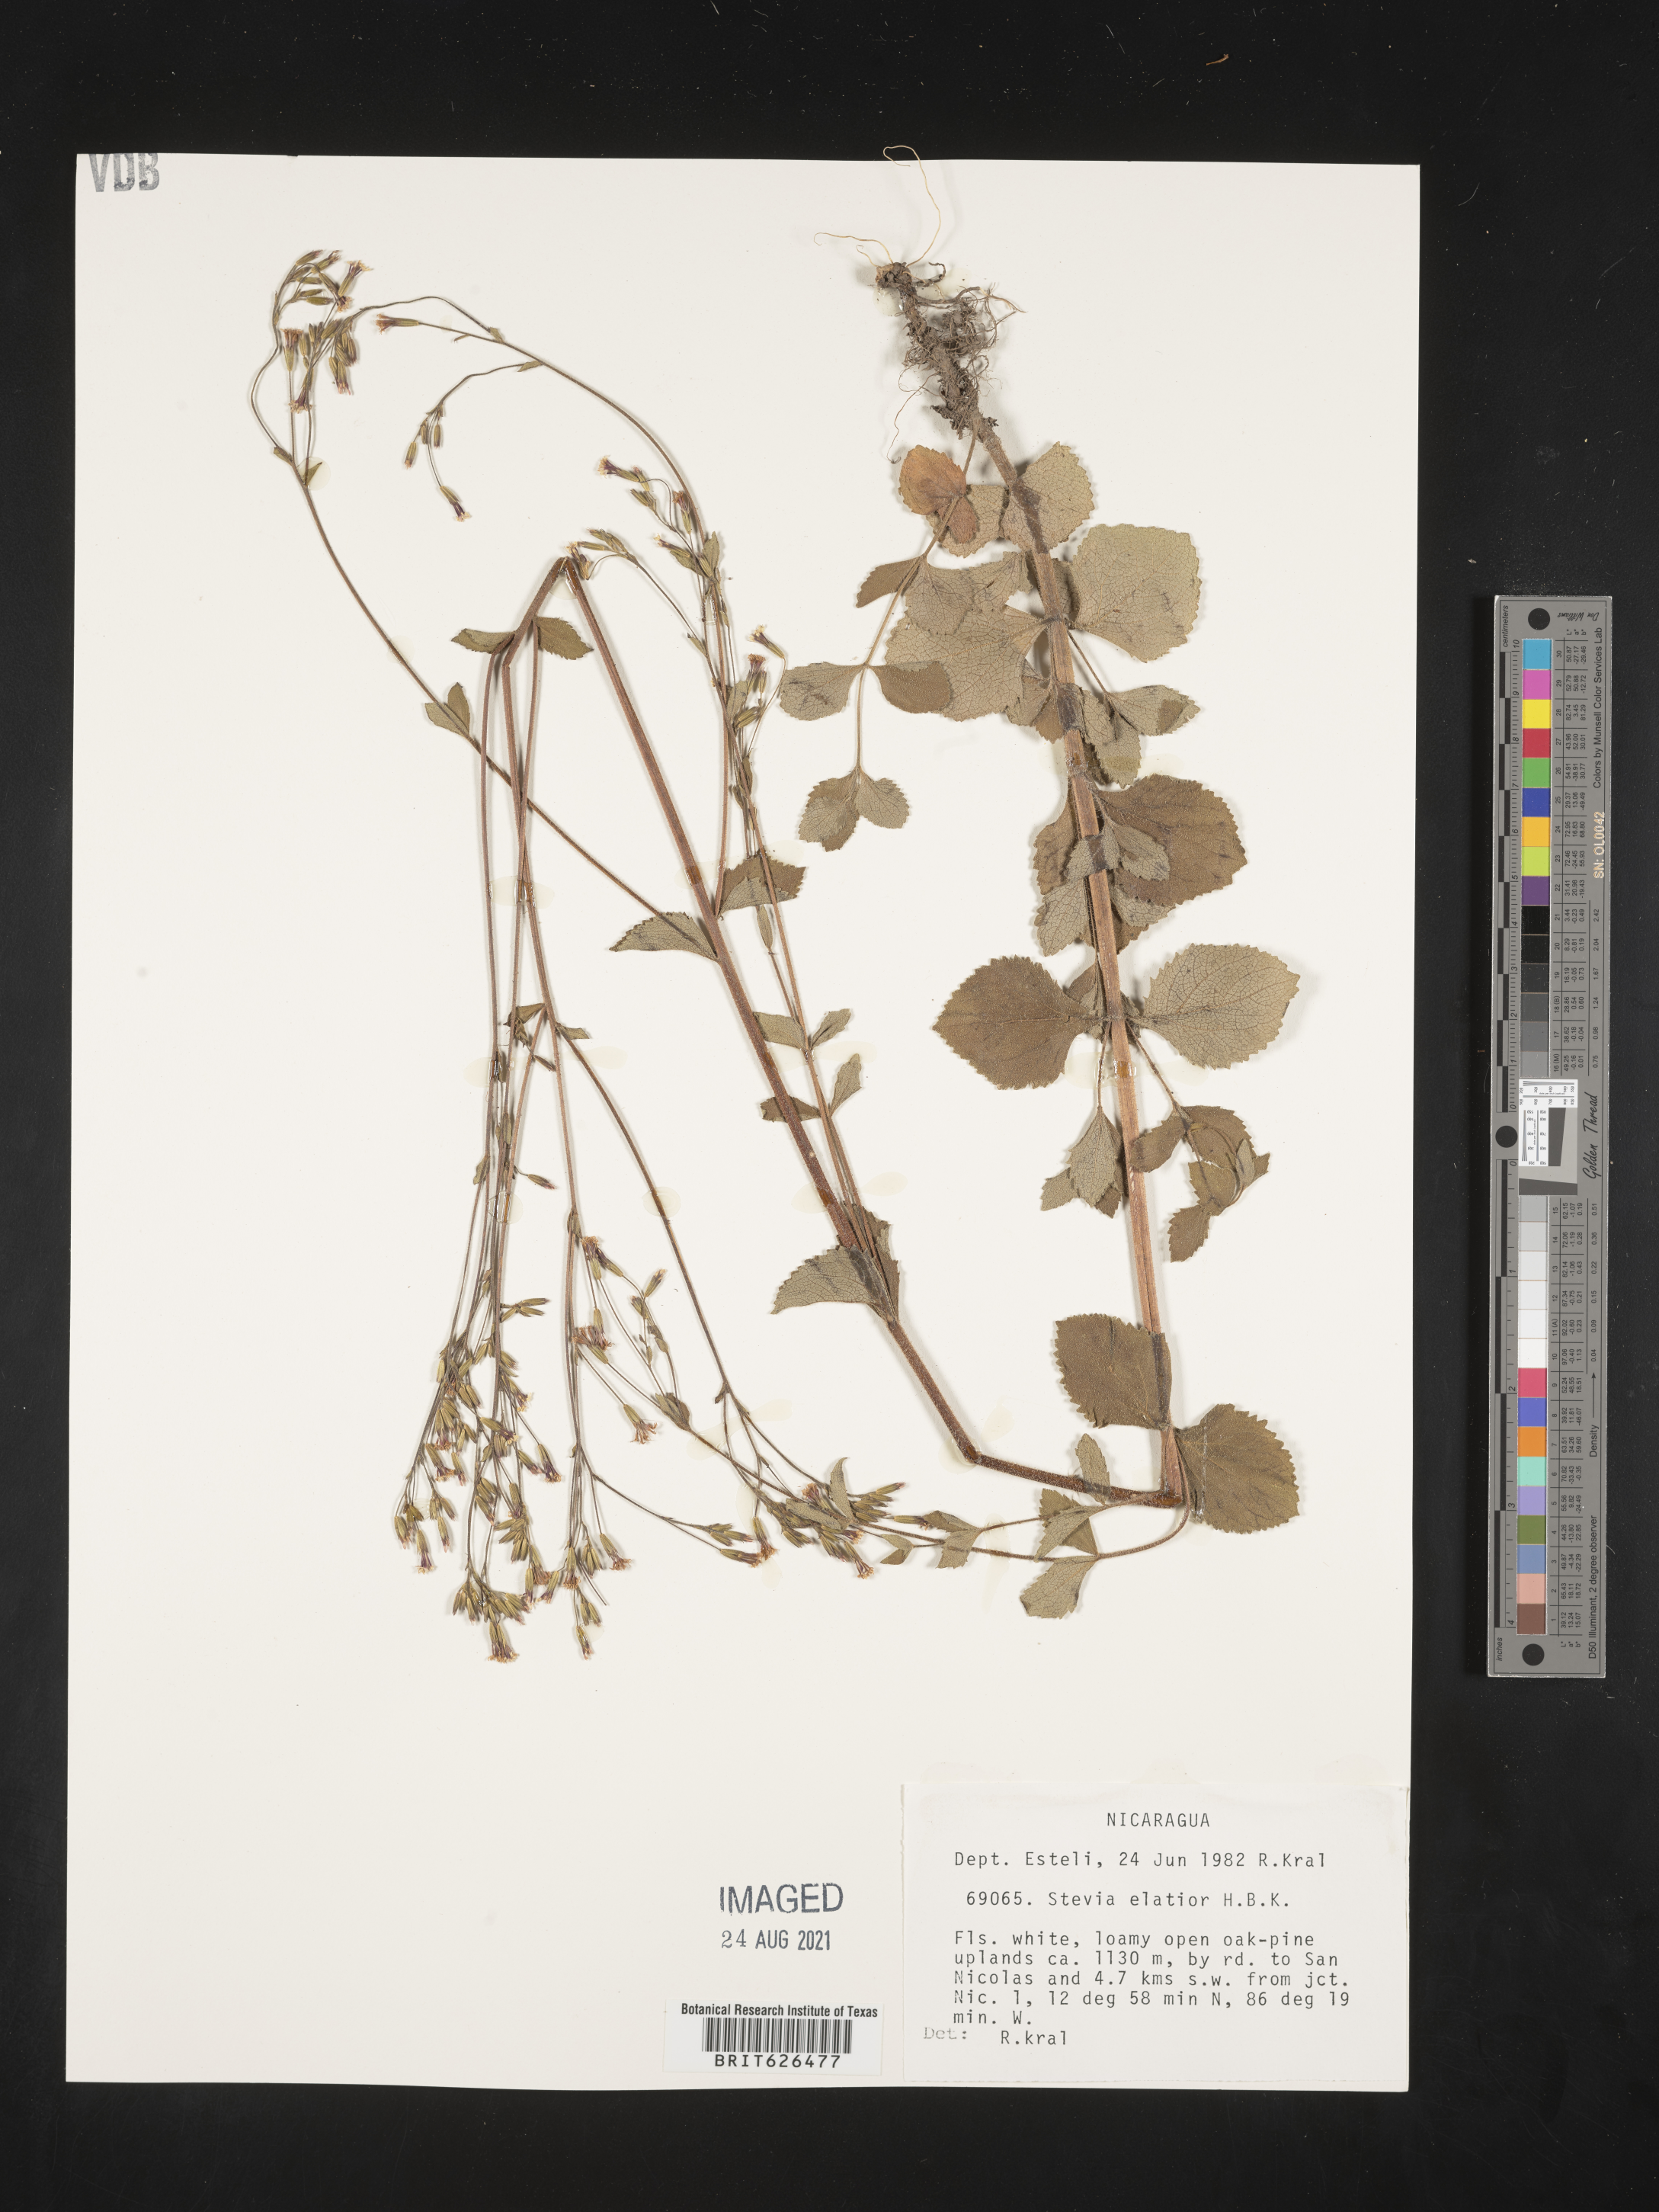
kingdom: Plantae
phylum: Tracheophyta
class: Magnoliopsida
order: Asterales
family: Asteraceae
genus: Stevia
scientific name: Stevia elatior
